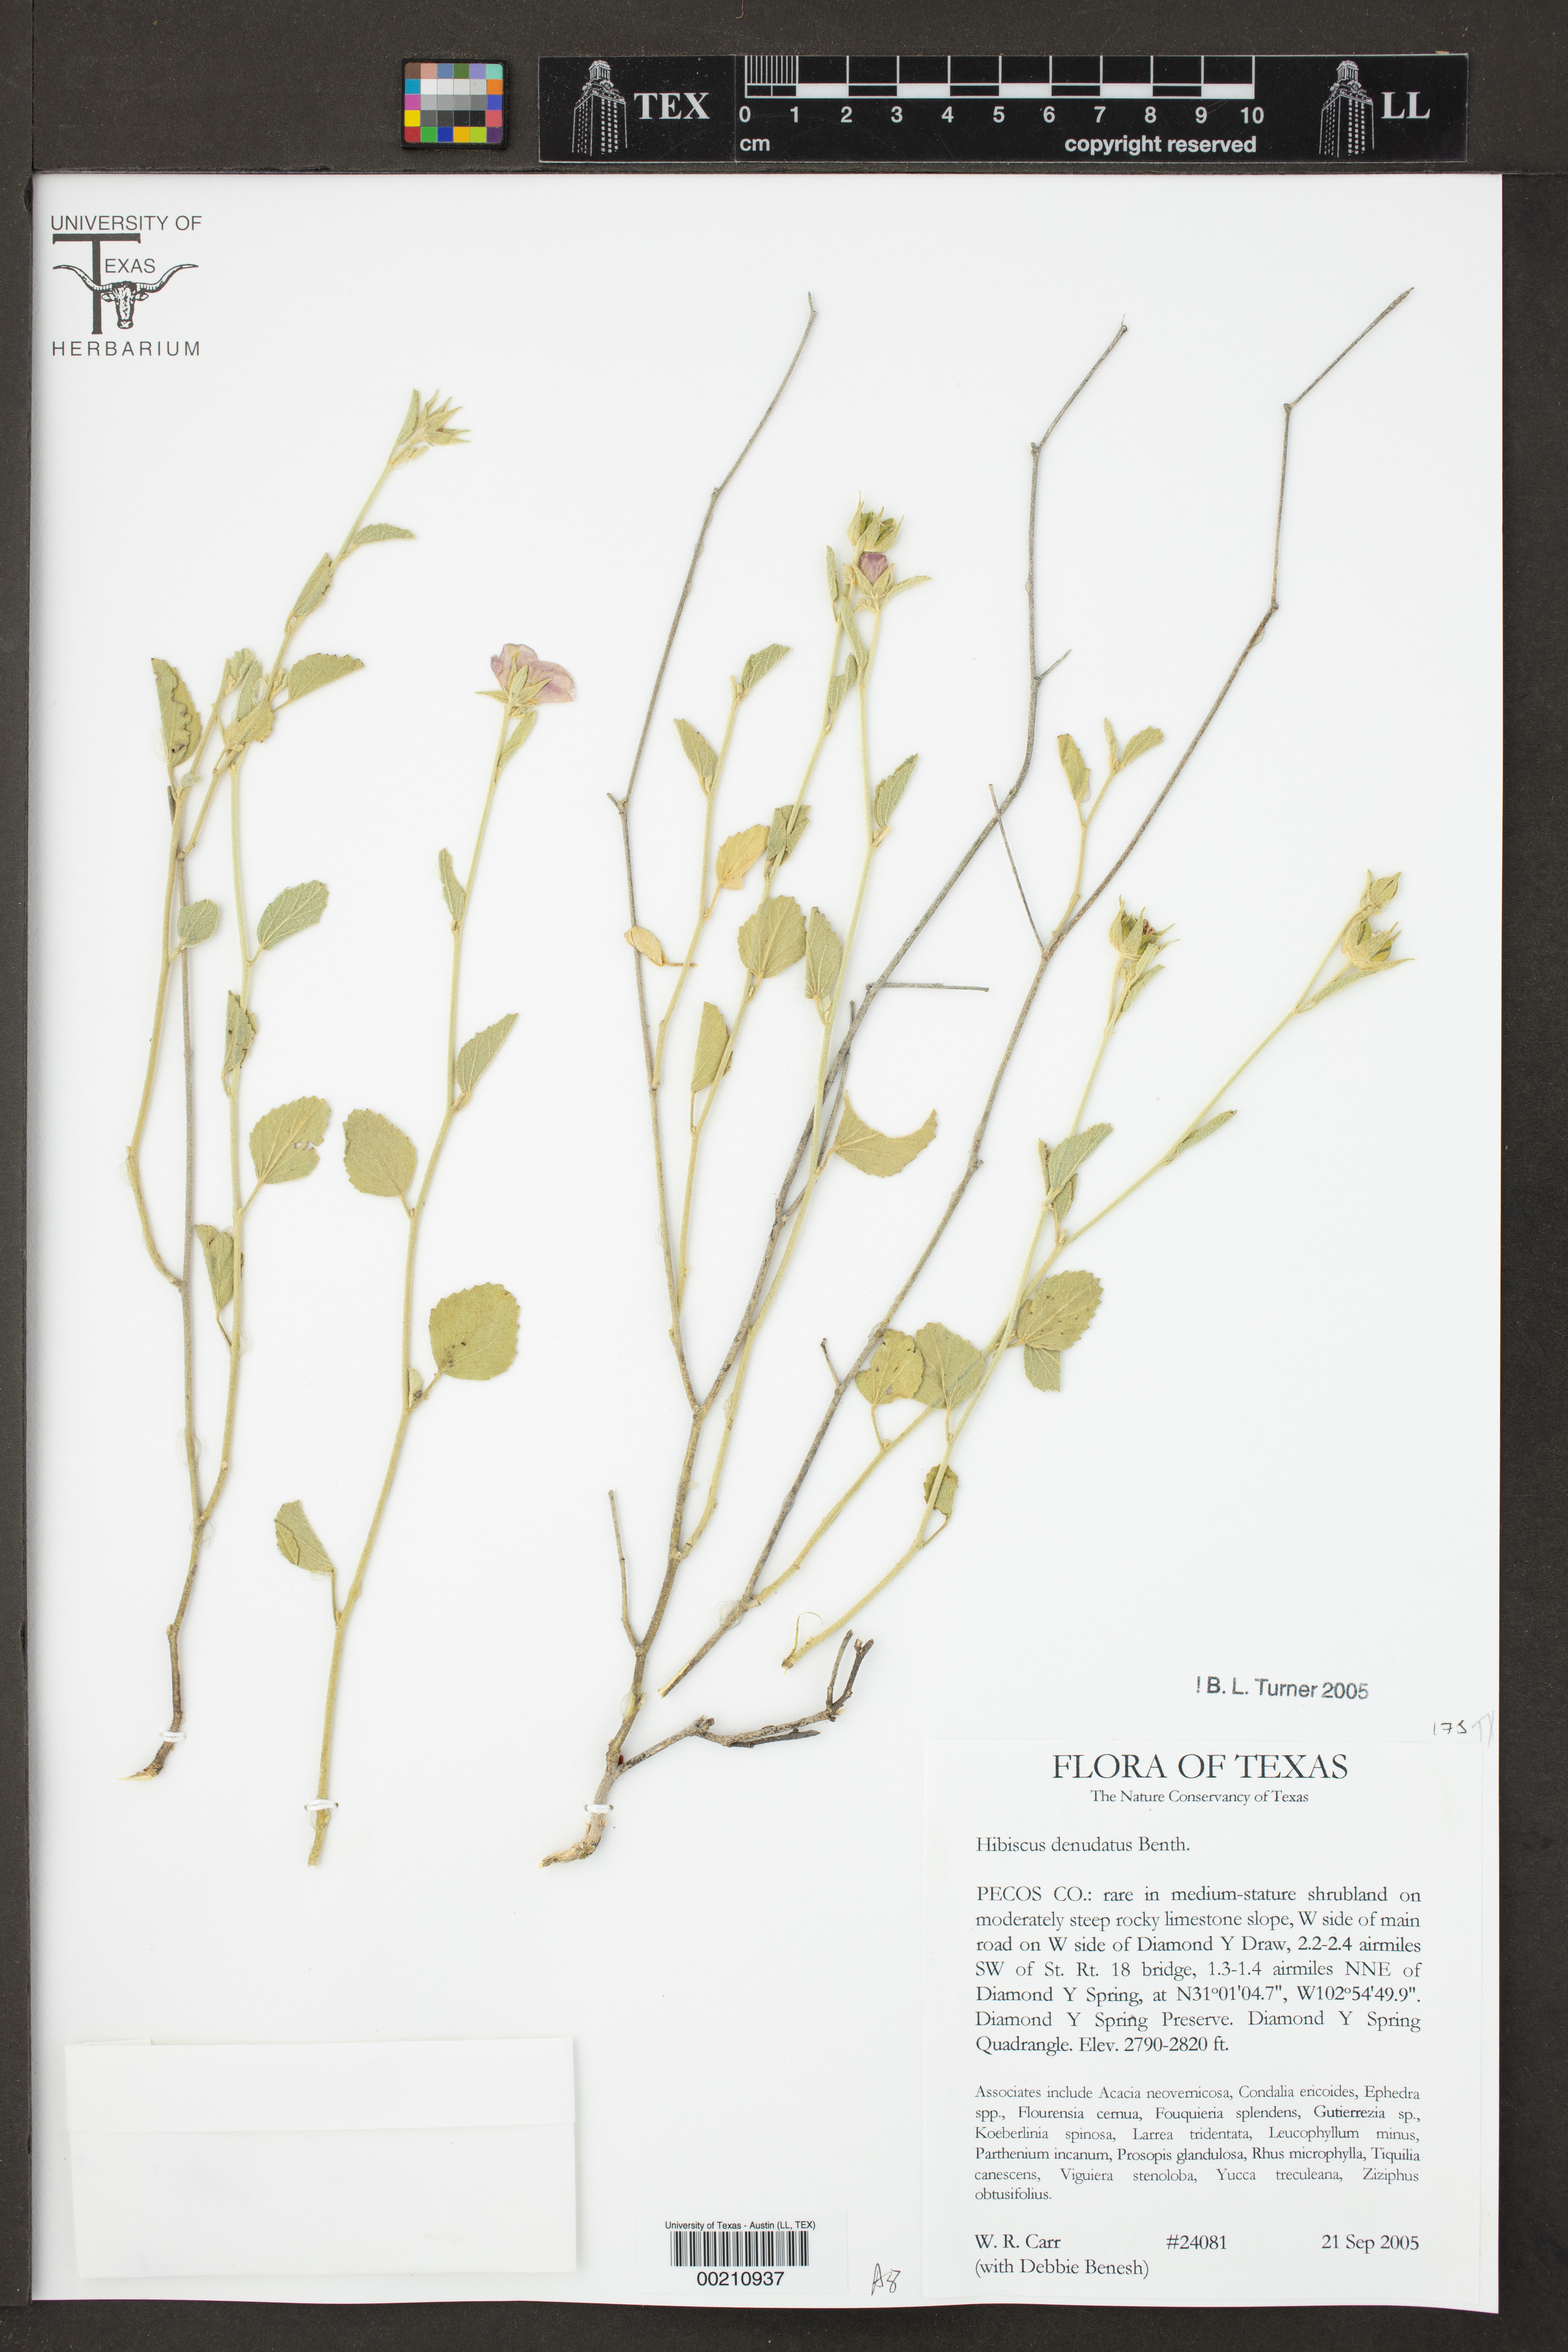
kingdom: Plantae
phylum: Tracheophyta
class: Magnoliopsida
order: Malvales
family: Malvaceae
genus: Hibiscus
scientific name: Hibiscus denudatus
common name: Paleface
